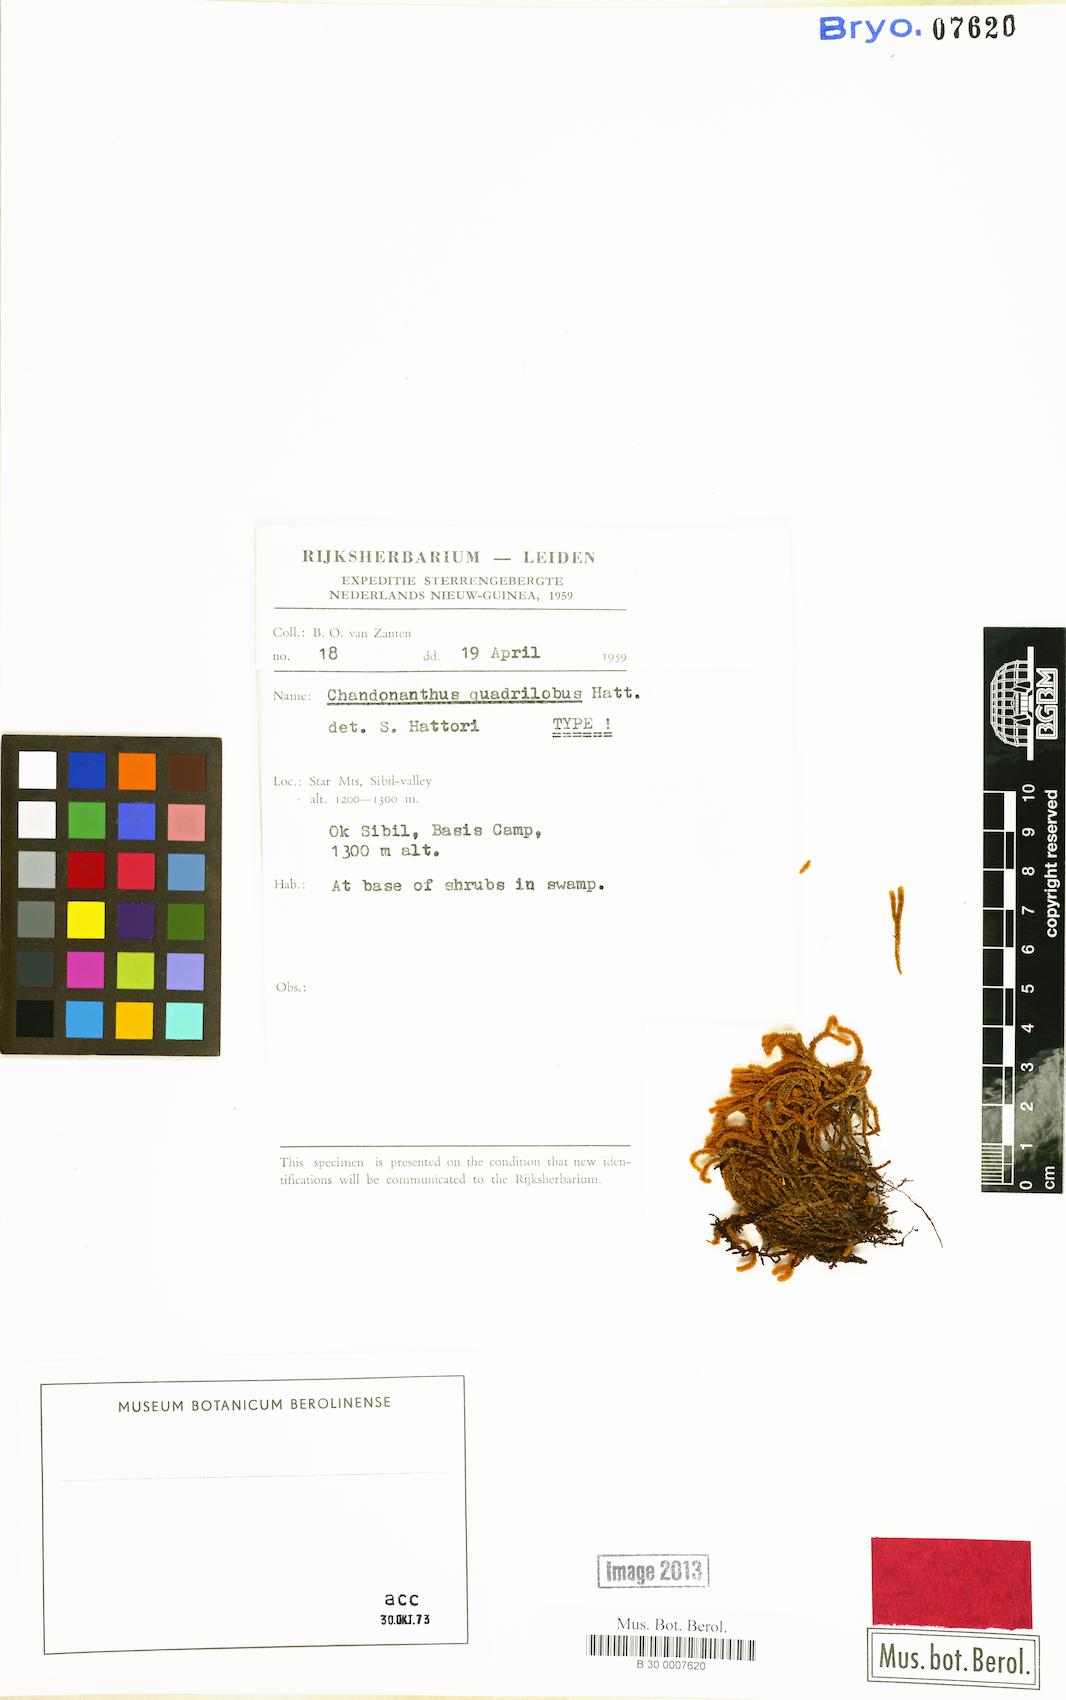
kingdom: Plantae
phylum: Marchantiophyta
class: Jungermanniopsida
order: Jungermanniales
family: Anastrophyllaceae
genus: Chandonanthus
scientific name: Chandonanthus
